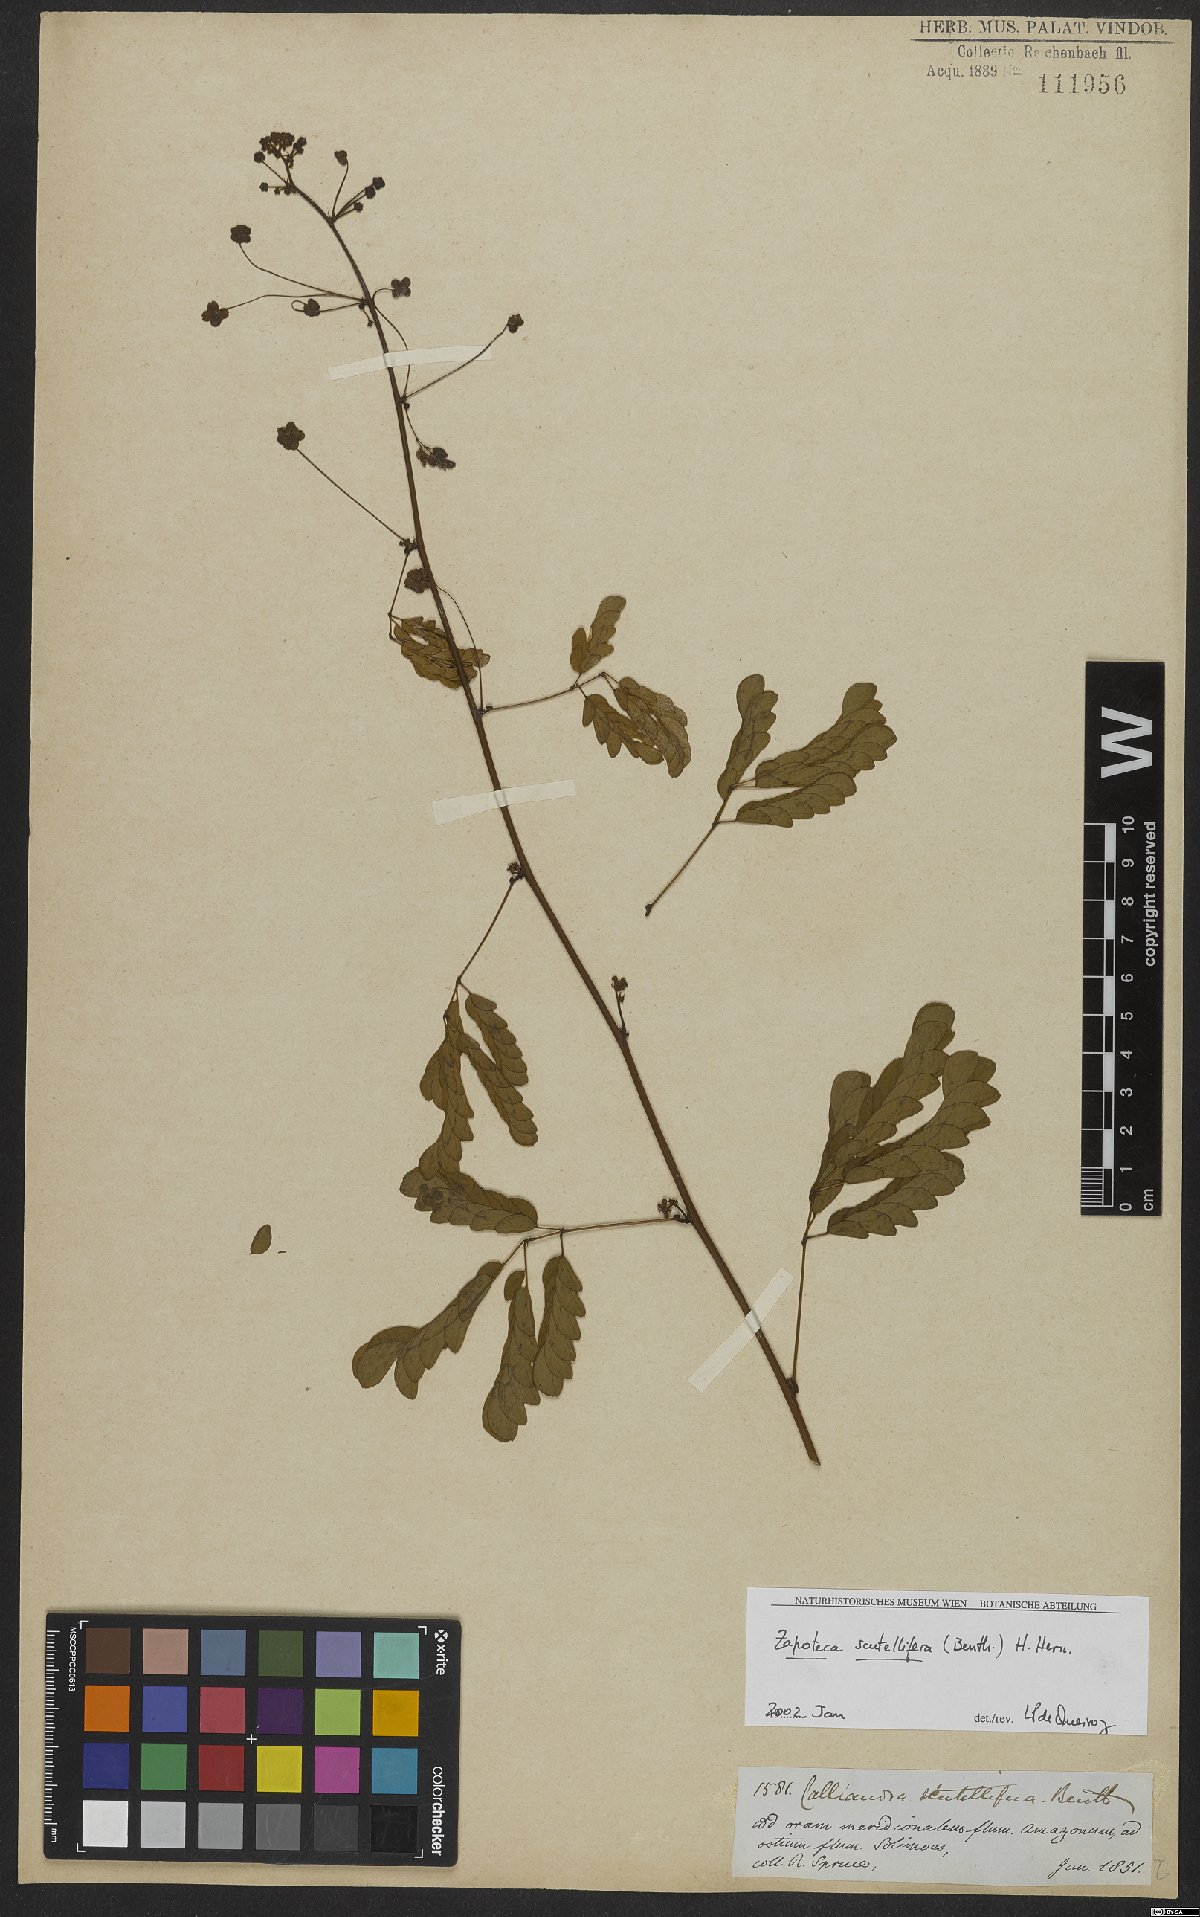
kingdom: Plantae
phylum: Tracheophyta
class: Magnoliopsida
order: Fabales
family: Fabaceae
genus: Zapoteca
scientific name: Zapoteca scutellifera
